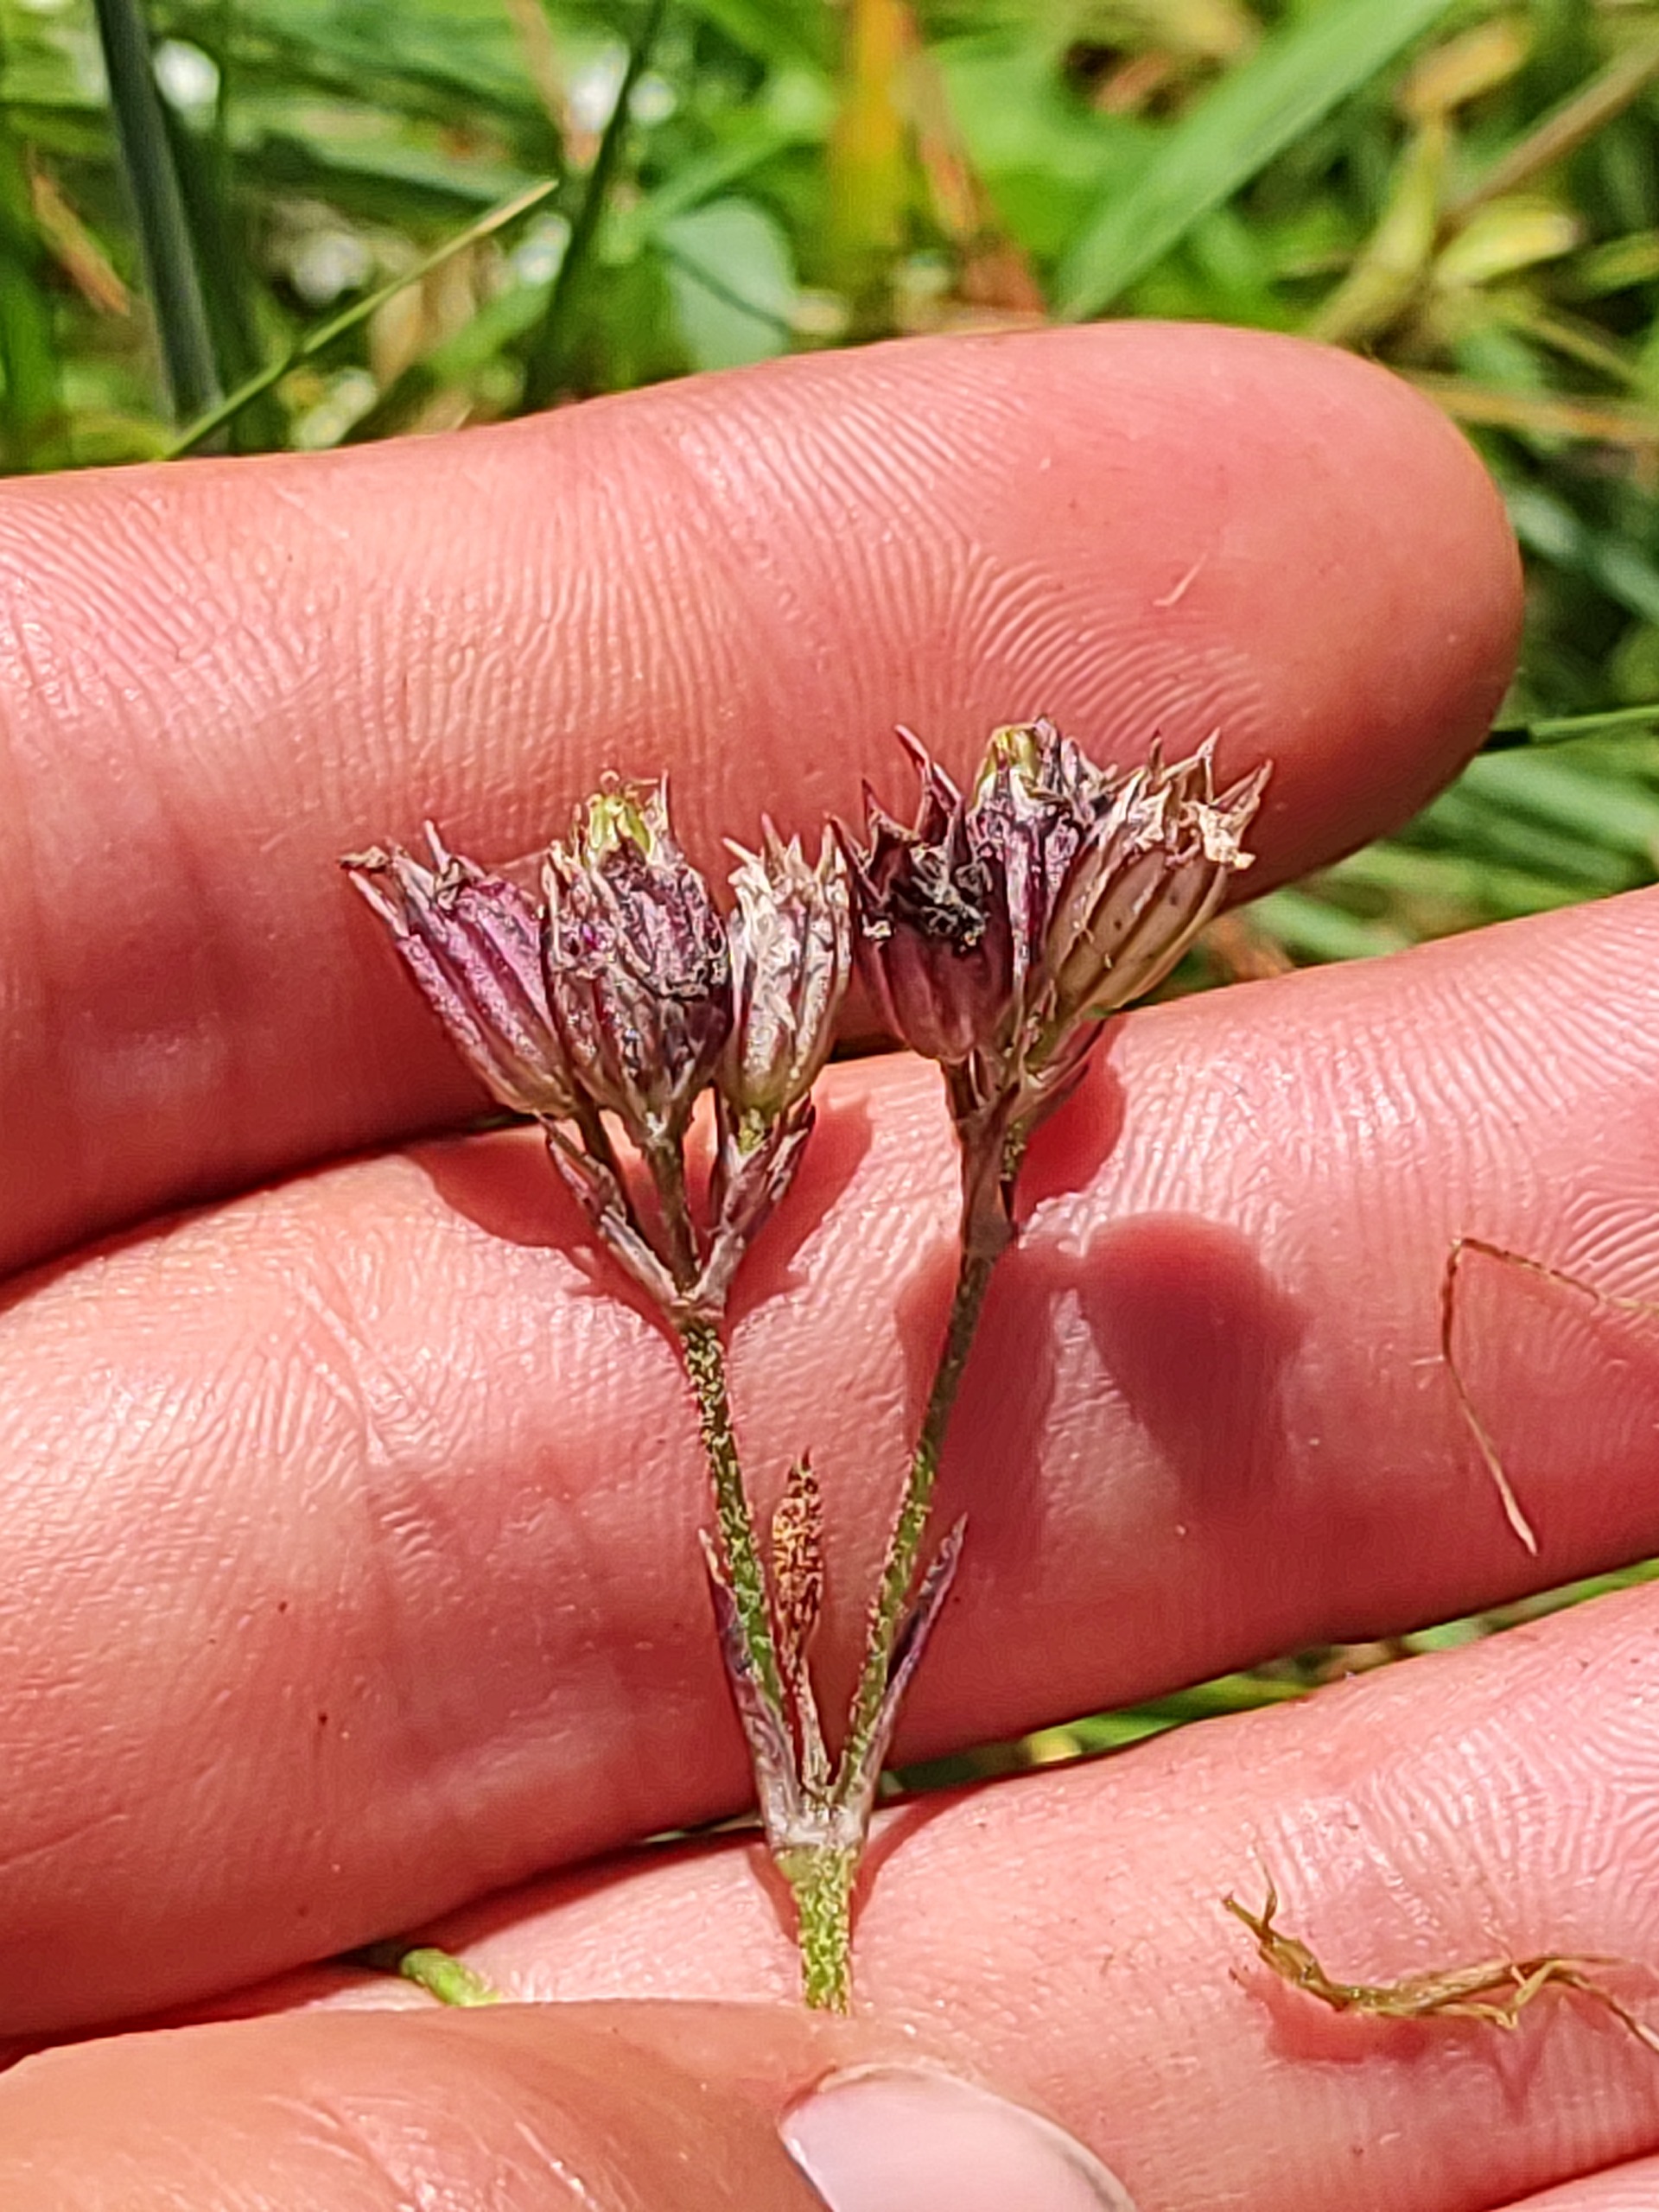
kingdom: Plantae
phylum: Tracheophyta
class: Magnoliopsida
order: Caryophyllales
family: Caryophyllaceae
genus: Silene
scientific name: Silene flos-cuculi
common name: Trævlekrone
